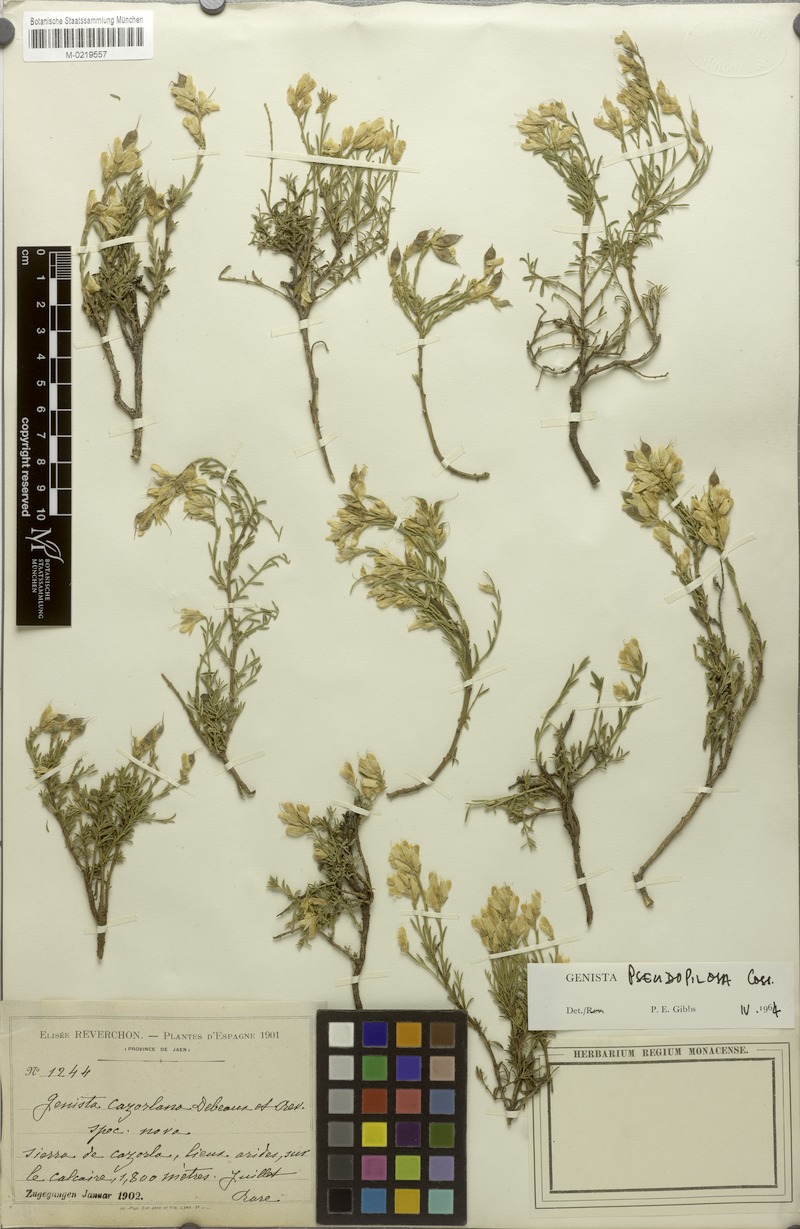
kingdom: Plantae
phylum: Tracheophyta
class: Magnoliopsida
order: Fabales
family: Fabaceae
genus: Genista
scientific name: Genista pseudopilosa
